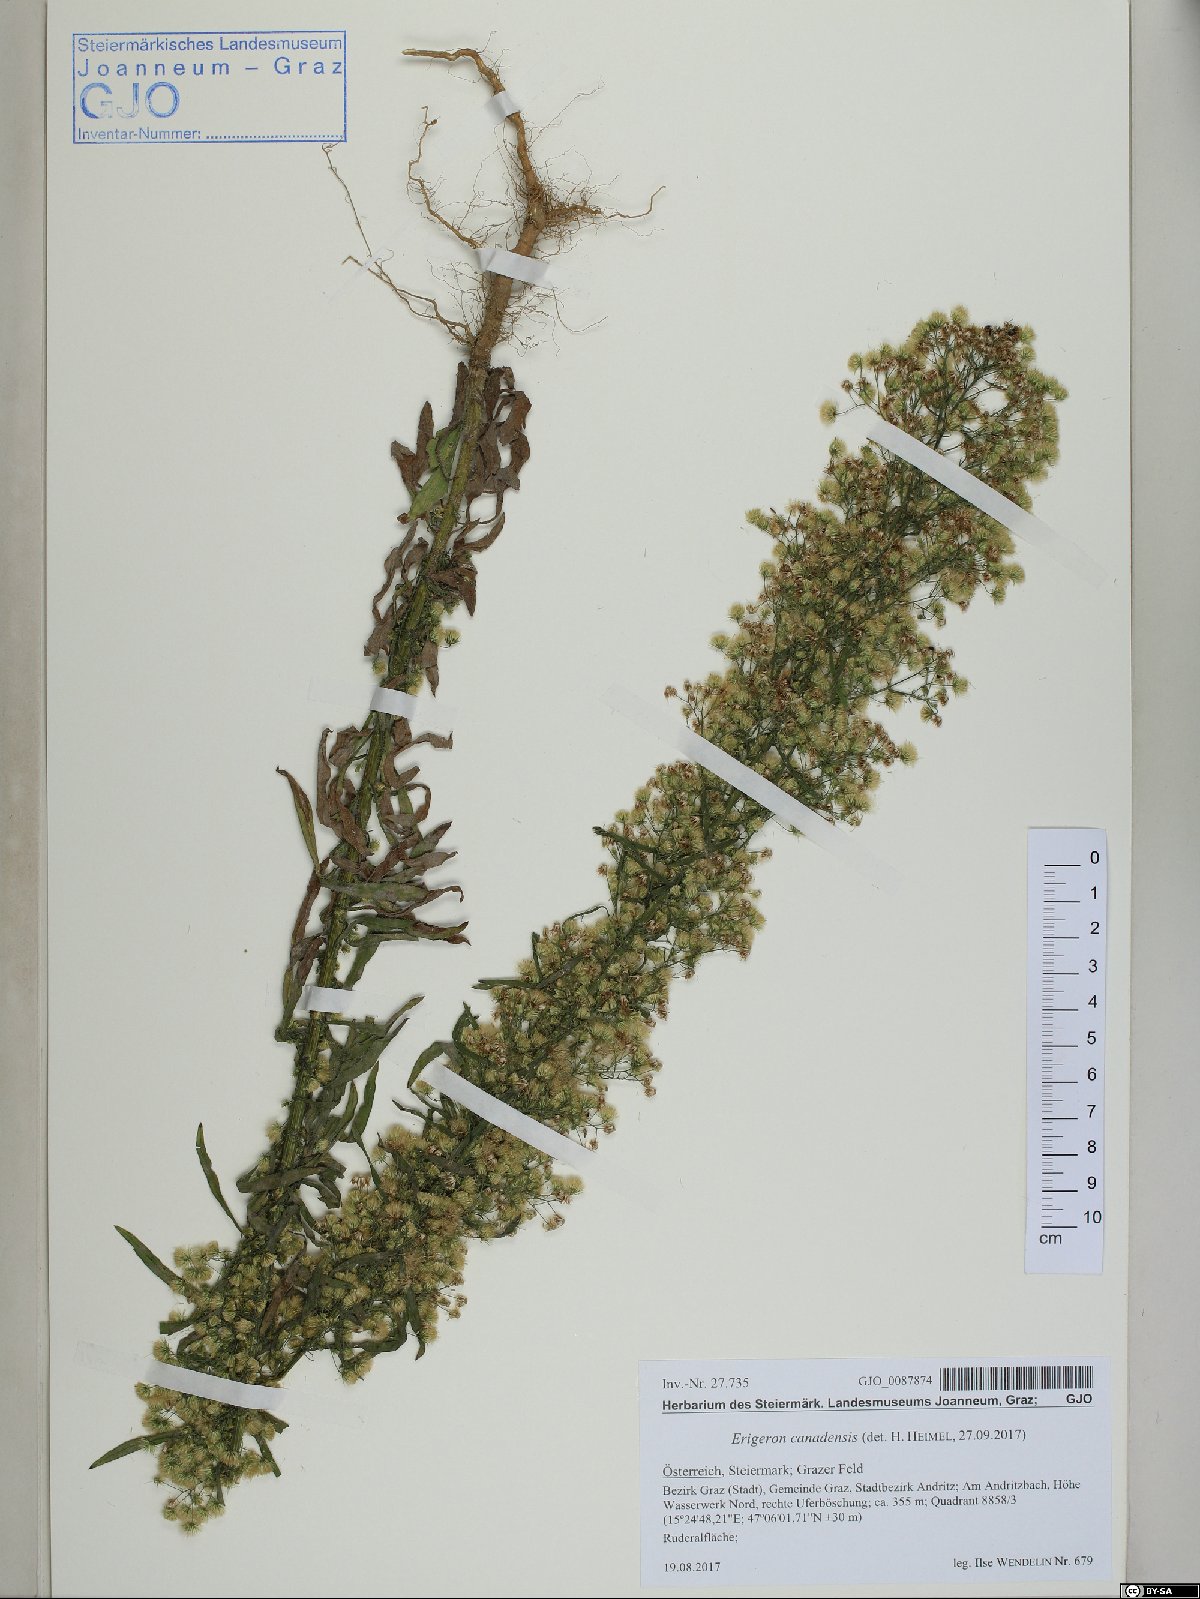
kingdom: Plantae
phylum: Tracheophyta
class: Magnoliopsida
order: Asterales
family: Asteraceae
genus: Erigeron
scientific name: Erigeron canadensis
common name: Canadian fleabane
